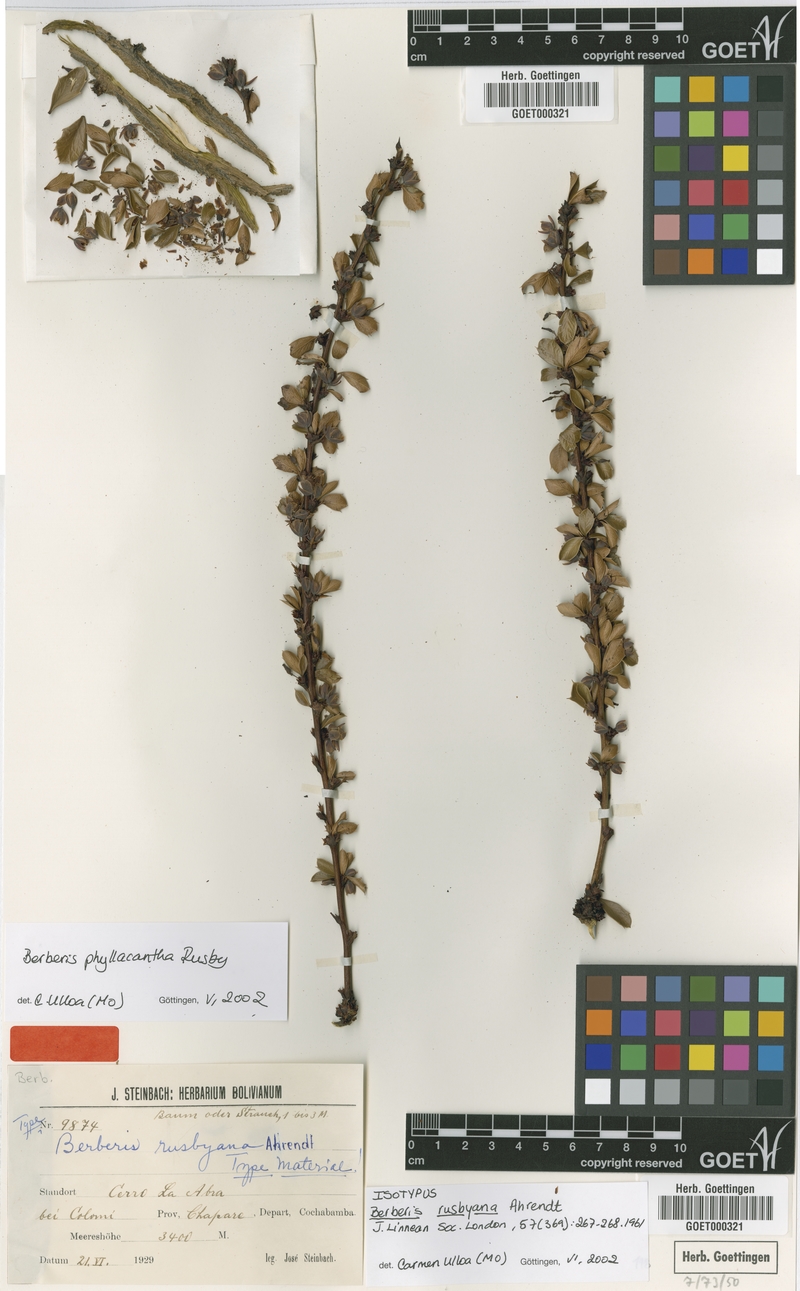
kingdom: Plantae
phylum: Tracheophyta
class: Magnoliopsida
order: Ranunculales
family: Berberidaceae
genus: Berberis
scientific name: Berberis phyllacantha
